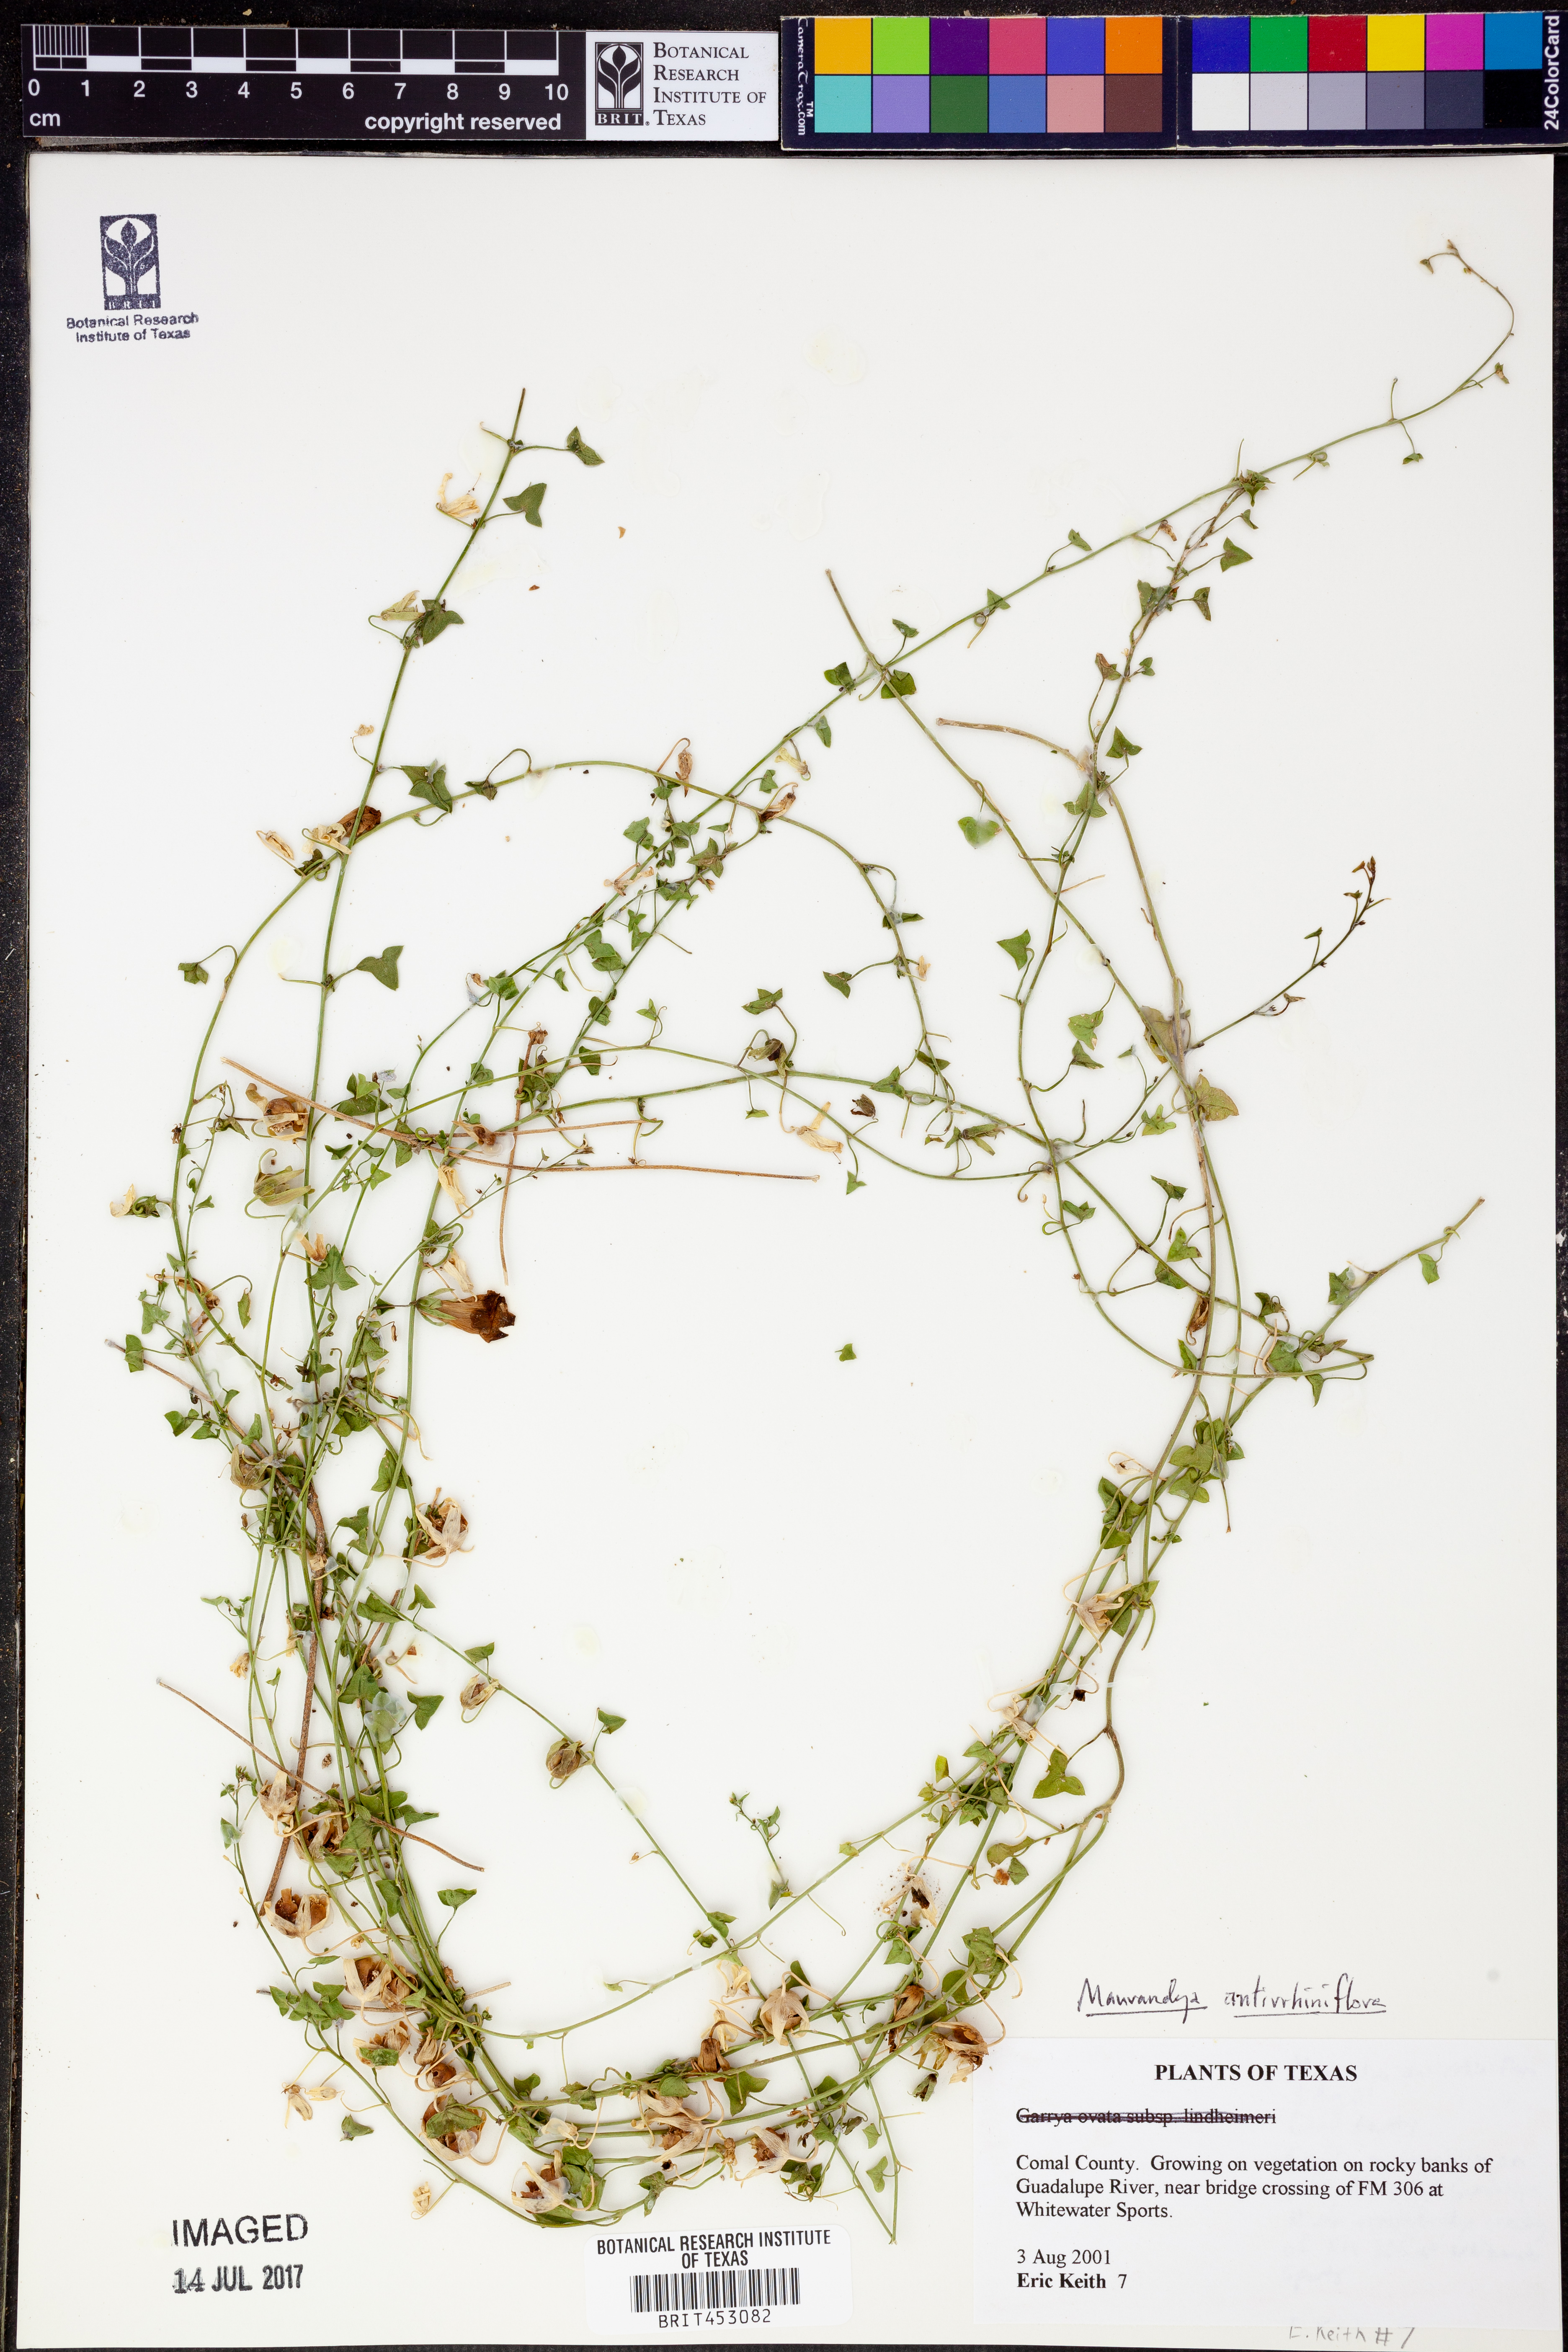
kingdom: Plantae
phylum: Tracheophyta
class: Magnoliopsida
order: Lamiales
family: Plantaginaceae
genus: Maurandella
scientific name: Maurandella antirrhiniflora
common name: Violet twining-snapdragon
